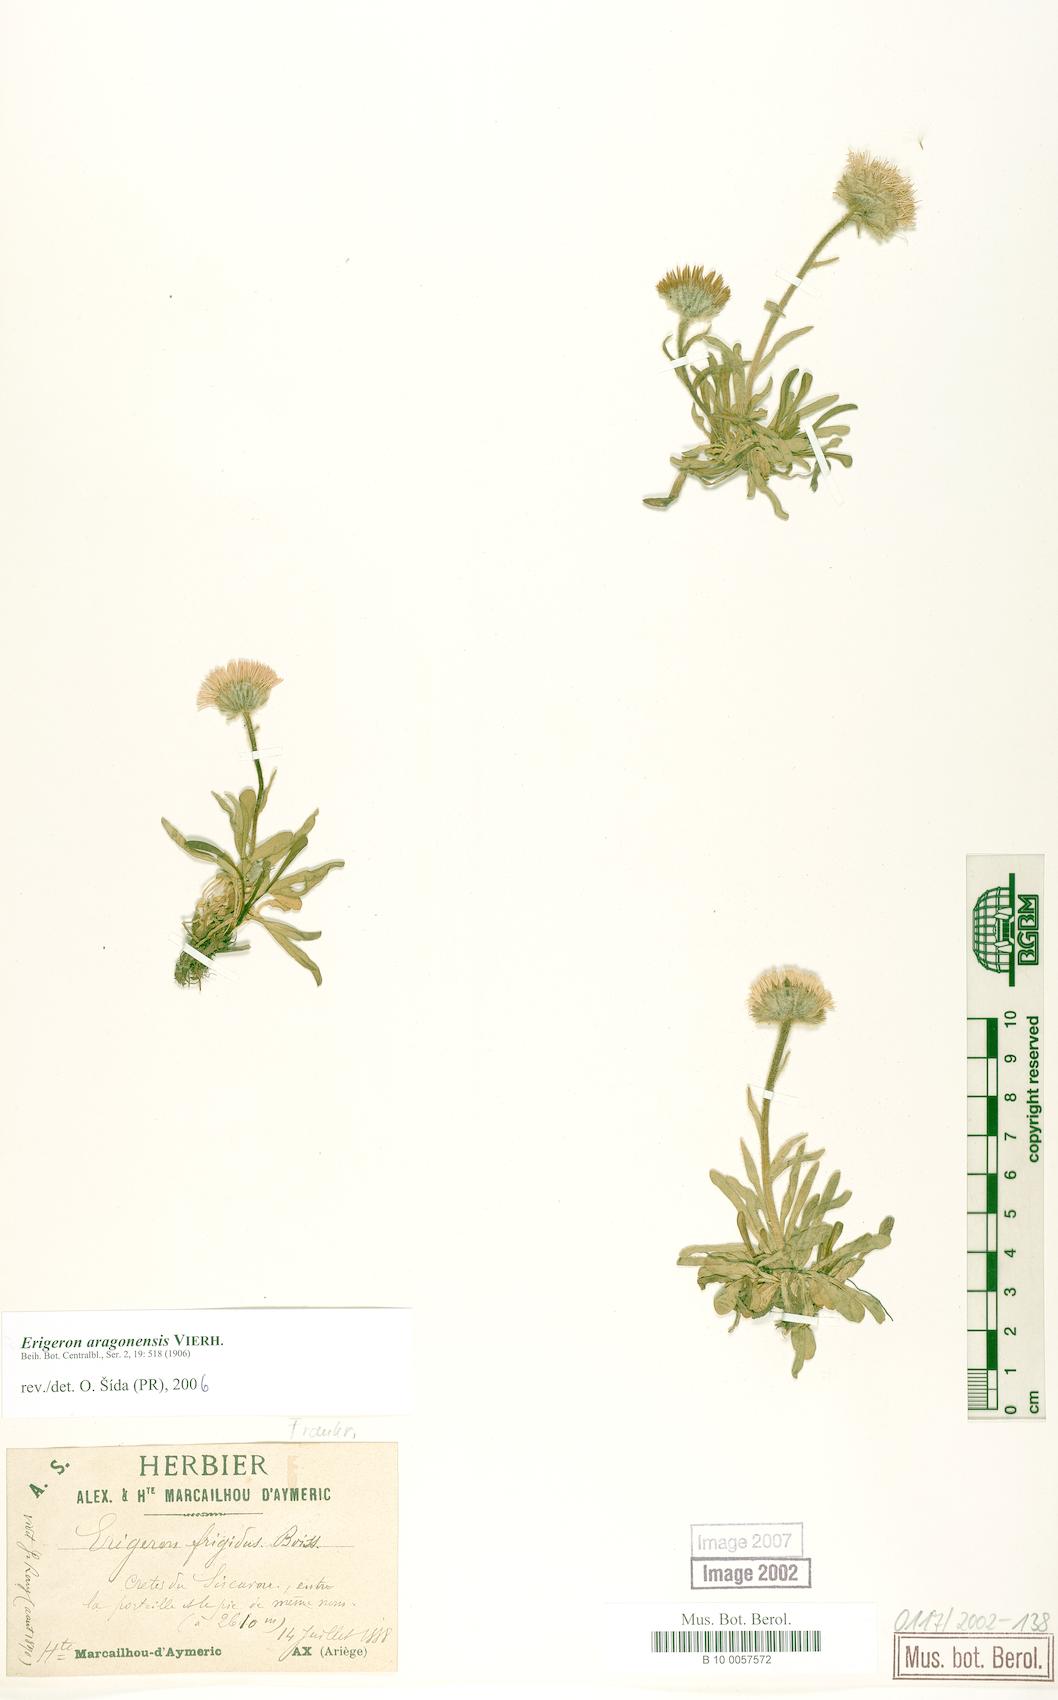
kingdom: Plantae
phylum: Tracheophyta
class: Magnoliopsida
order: Asterales
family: Asteraceae
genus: Erigeron
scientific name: Erigeron aragonensis
